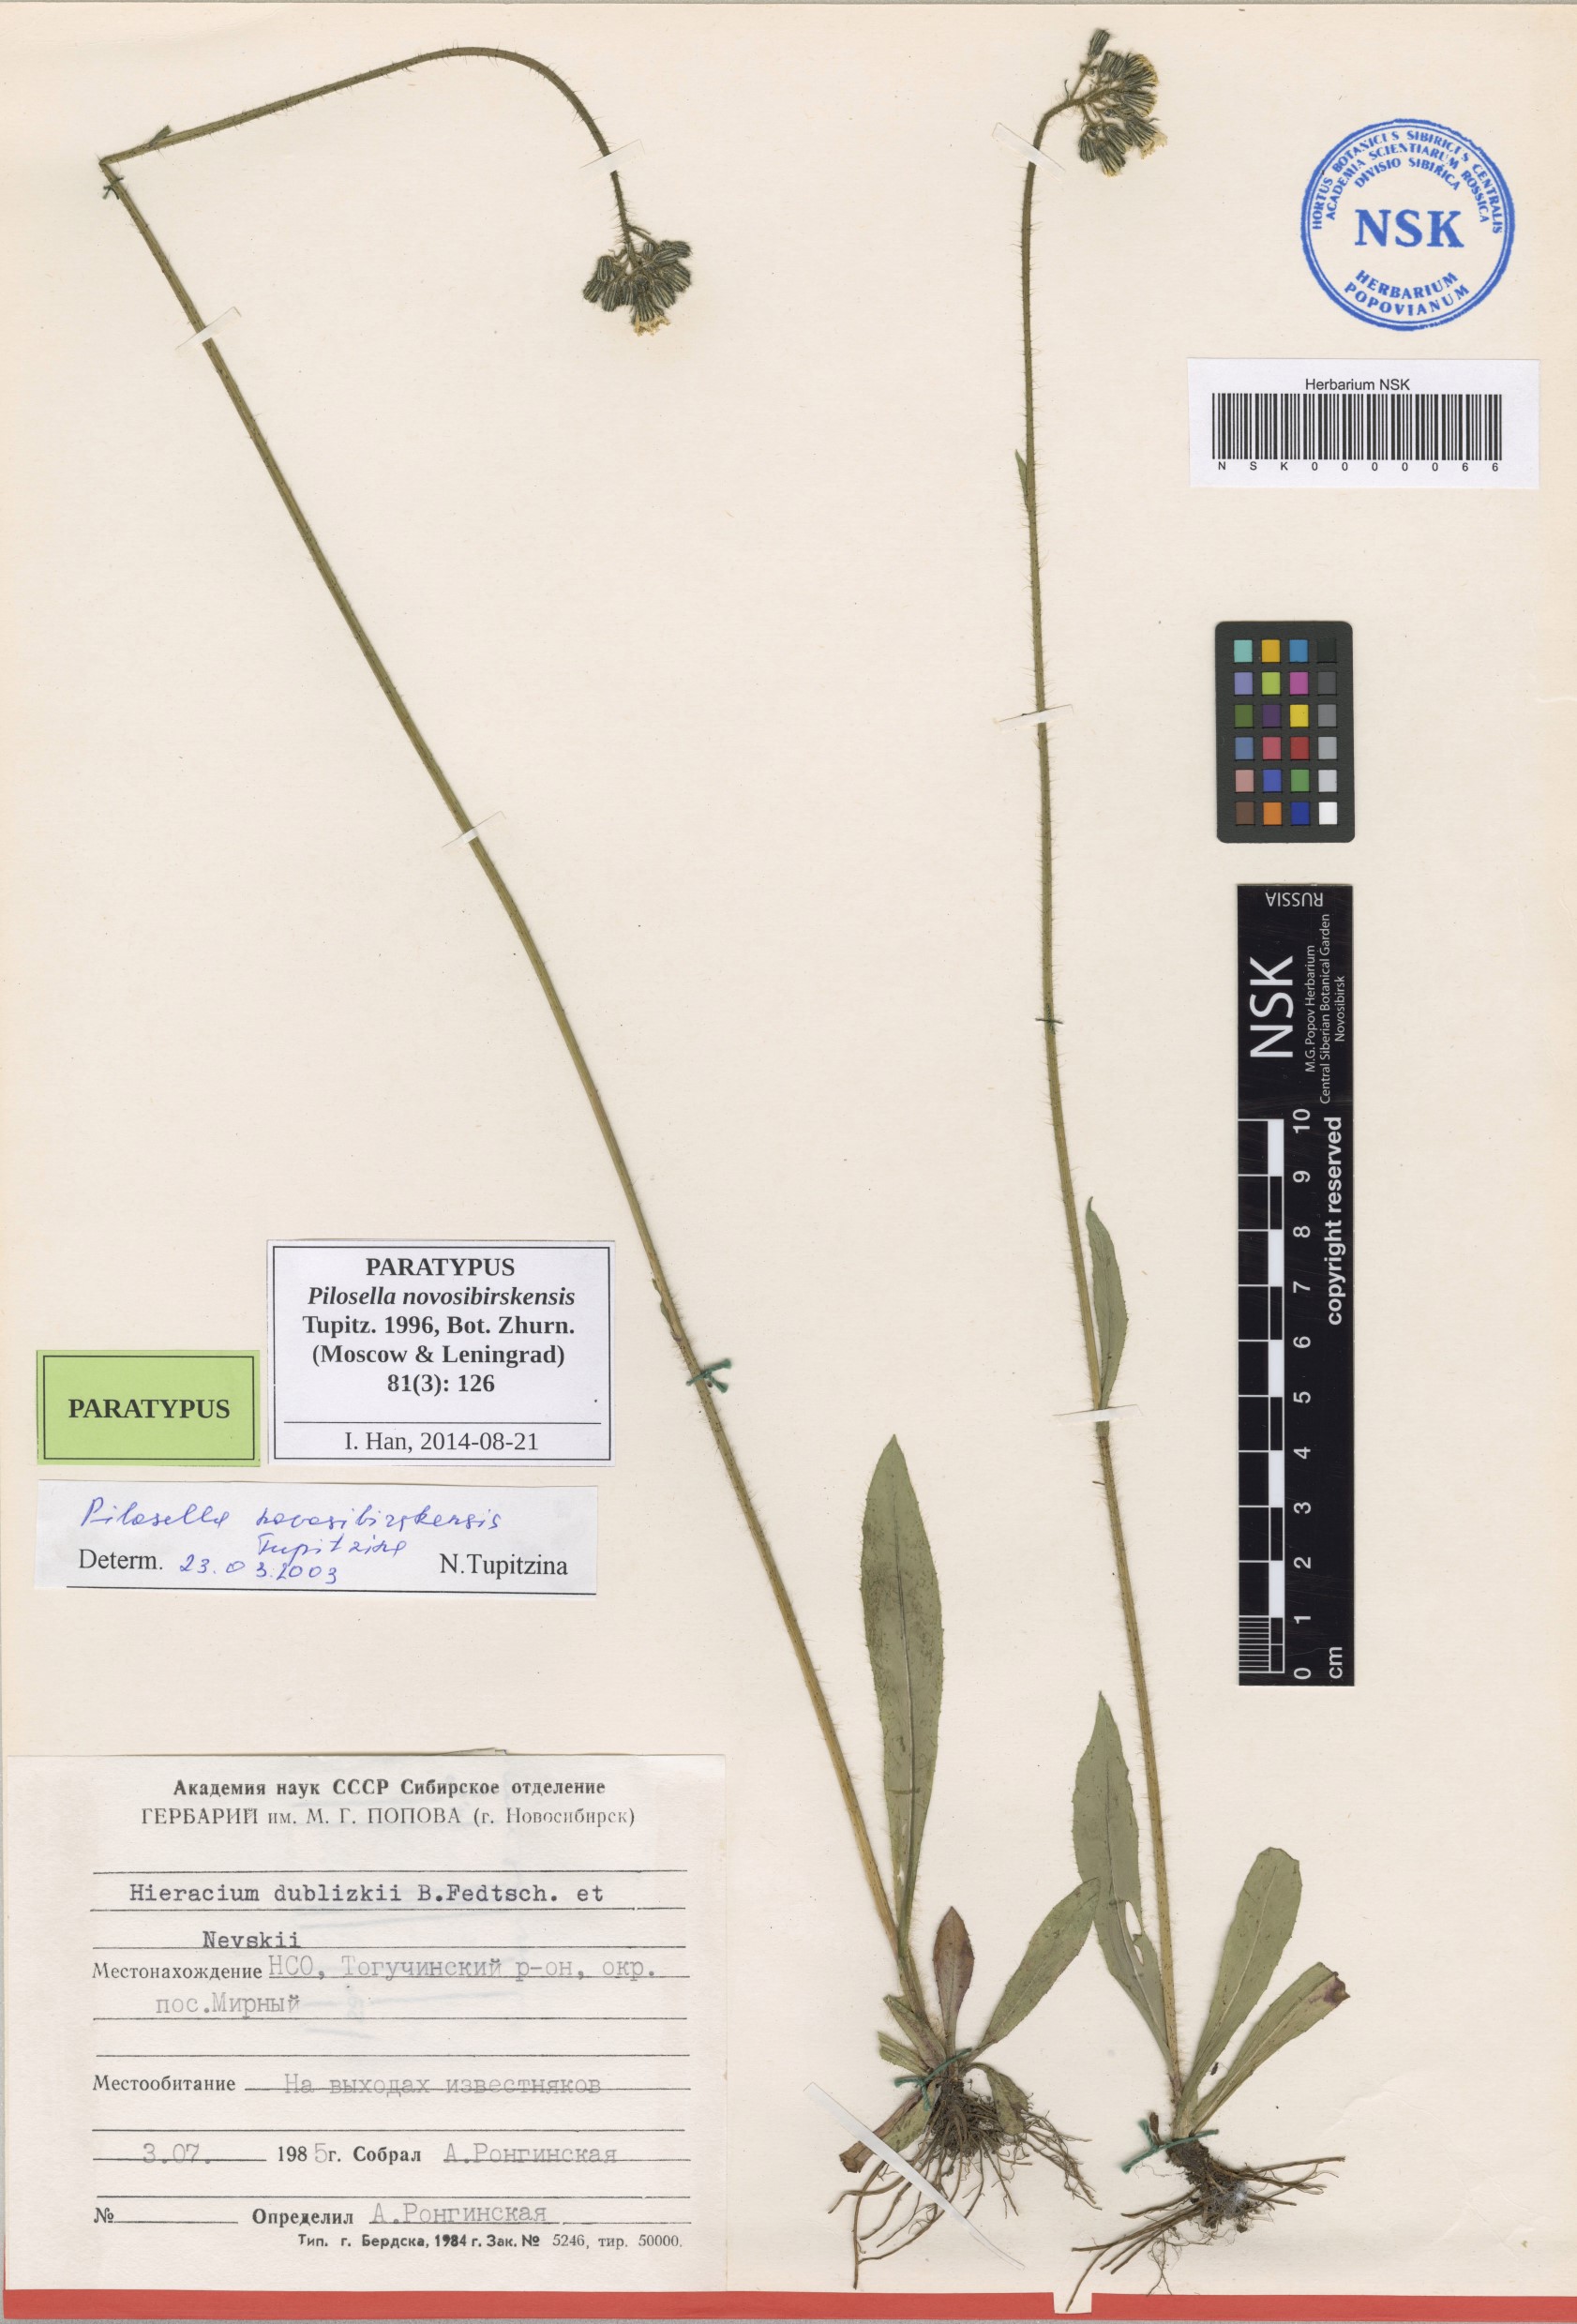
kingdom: Plantae
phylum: Tracheophyta
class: Magnoliopsida
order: Asterales
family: Asteraceae
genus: Pilosella
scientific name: Pilosella novosibirskensis
